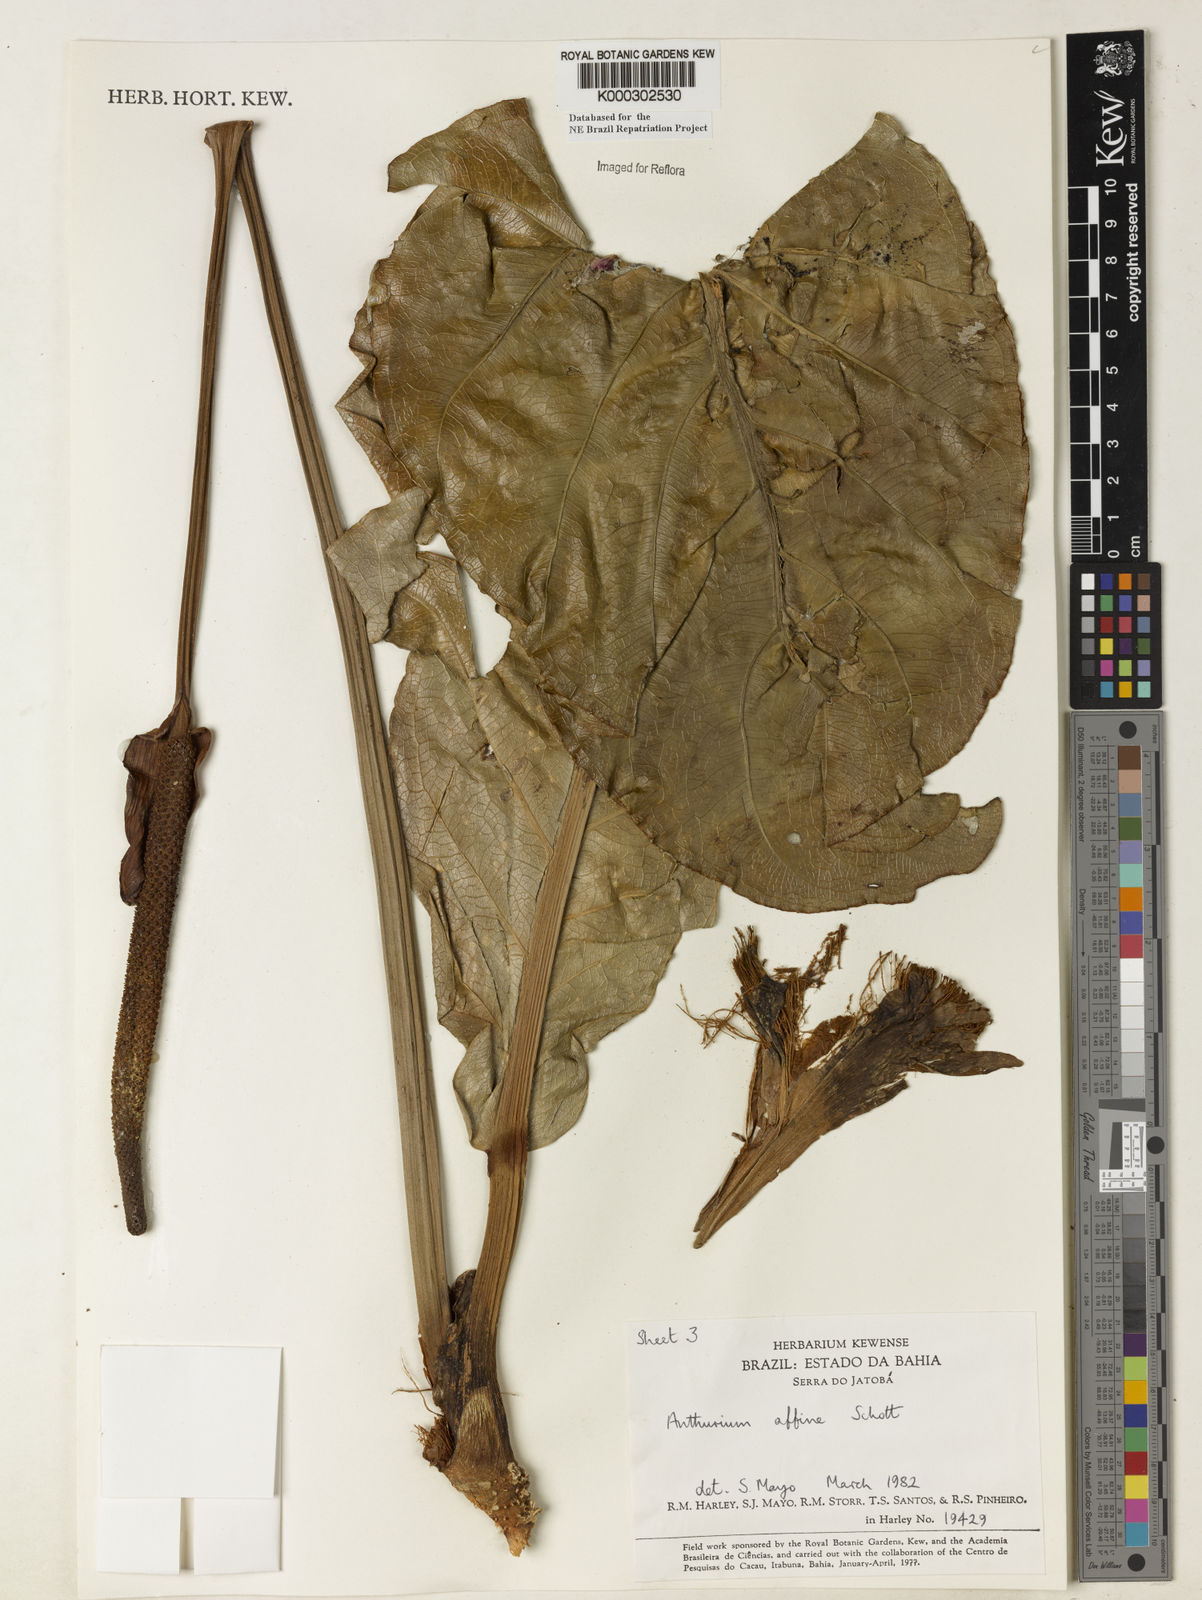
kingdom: Plantae
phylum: Tracheophyta
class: Liliopsida
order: Alismatales
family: Araceae
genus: Anthurium
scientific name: Anthurium affine
